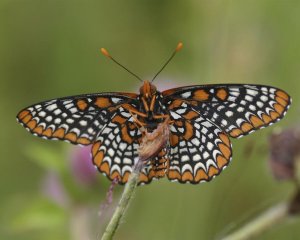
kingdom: Animalia
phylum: Arthropoda
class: Insecta
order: Lepidoptera
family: Nymphalidae
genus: Euphydryas
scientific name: Euphydryas phaeton
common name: Baltimore Checkerspot
